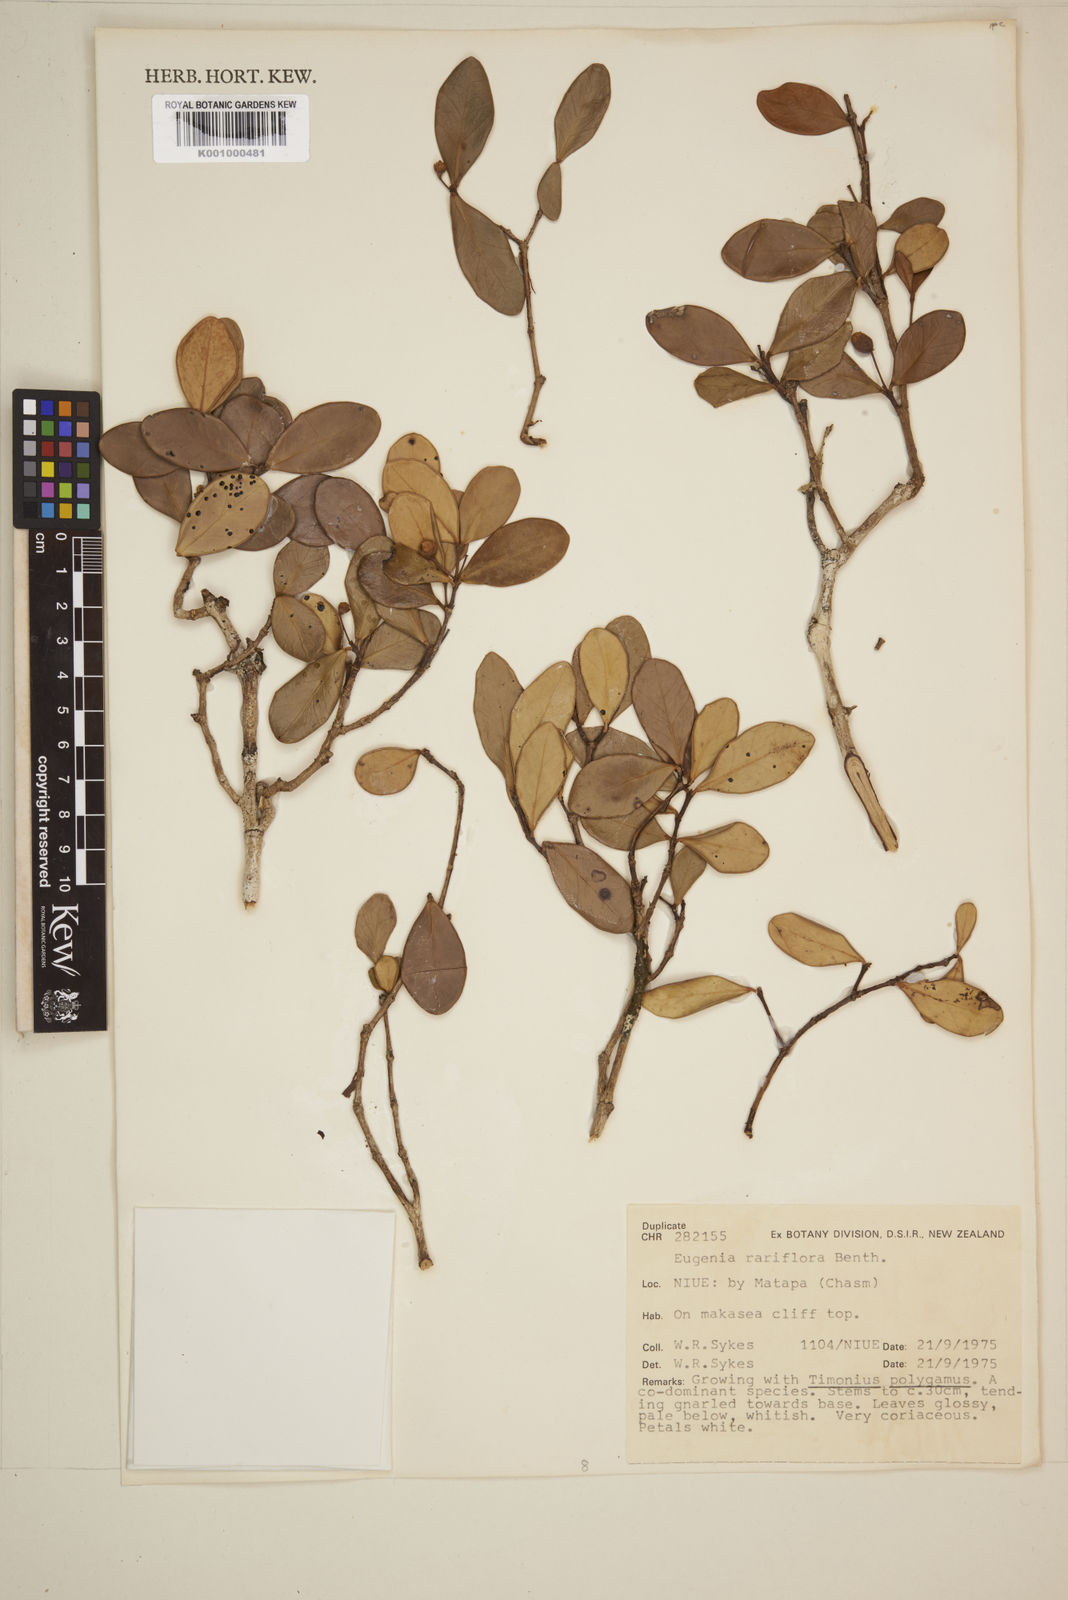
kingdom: Plantae
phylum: Tracheophyta
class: Magnoliopsida
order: Myrtales
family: Myrtaceae
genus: Eugenia
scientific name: Eugenia reinwardtiana
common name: Cedar bay-cherry
